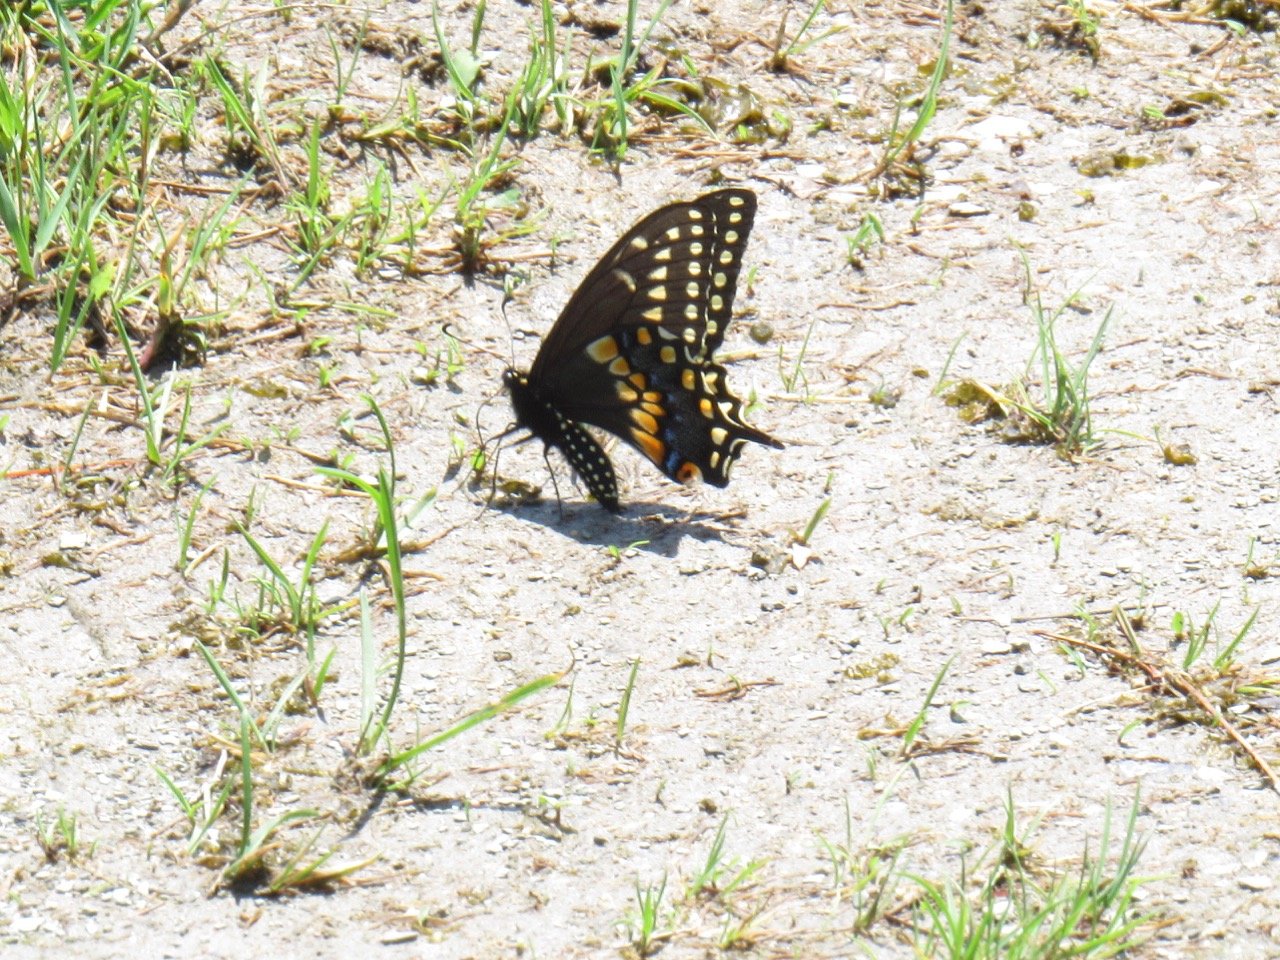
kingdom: Animalia
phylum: Arthropoda
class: Insecta
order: Lepidoptera
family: Papilionidae
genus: Papilio
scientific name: Papilio polyxenes
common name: Black Swallowtail
